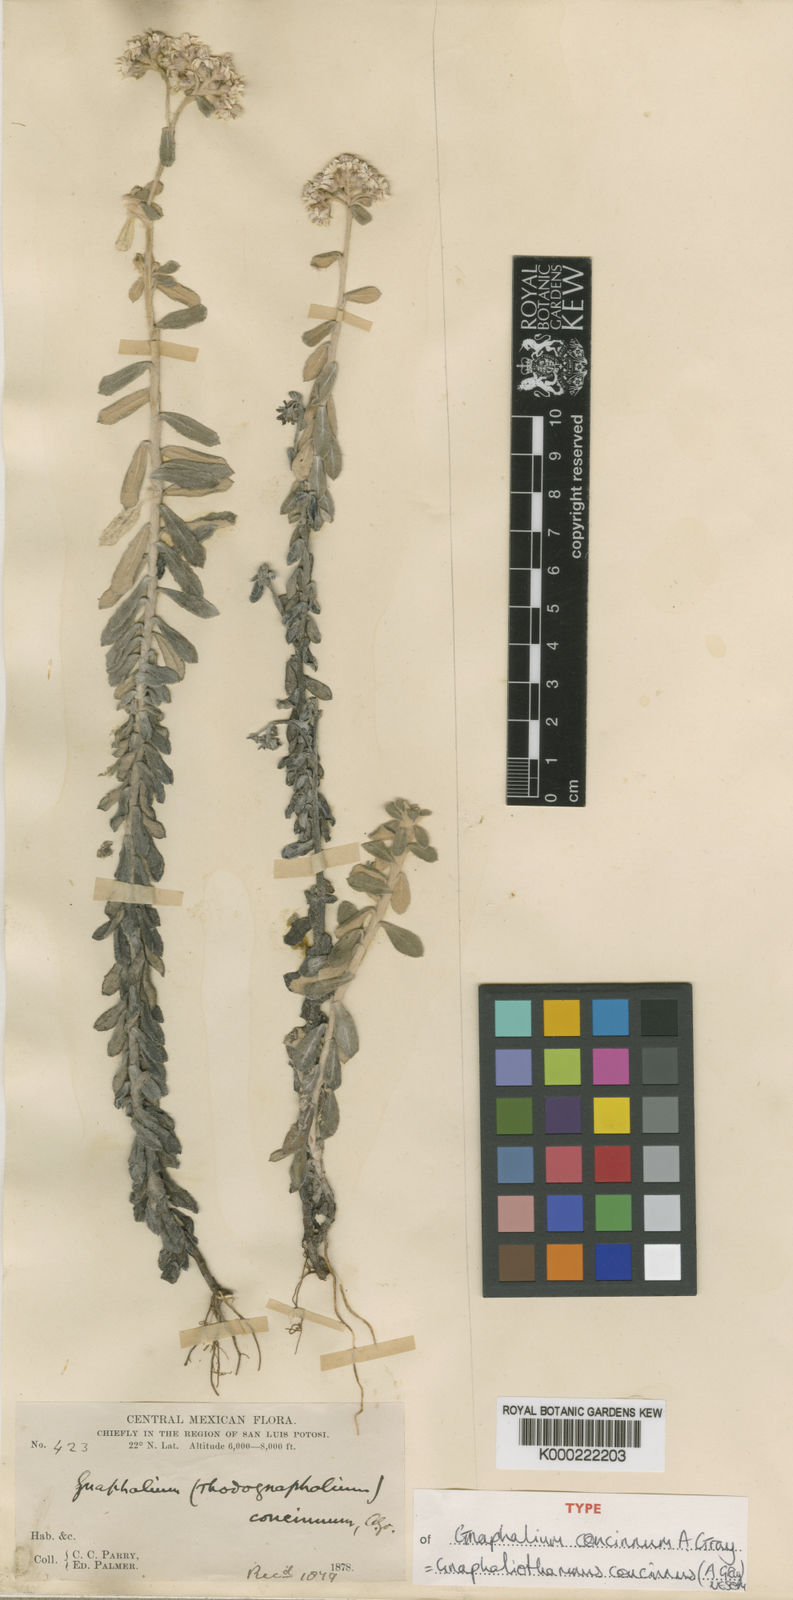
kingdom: Plantae
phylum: Tracheophyta
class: Magnoliopsida
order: Asterales
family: Asteraceae
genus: Gnaphaliothamnus
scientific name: Gnaphaliothamnus concinnus
